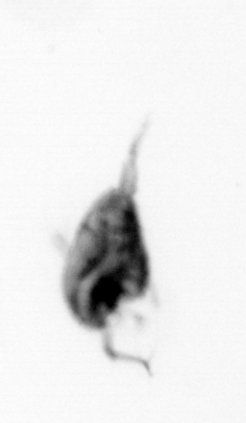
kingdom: Animalia
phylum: Arthropoda
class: Copepoda
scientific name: Copepoda
